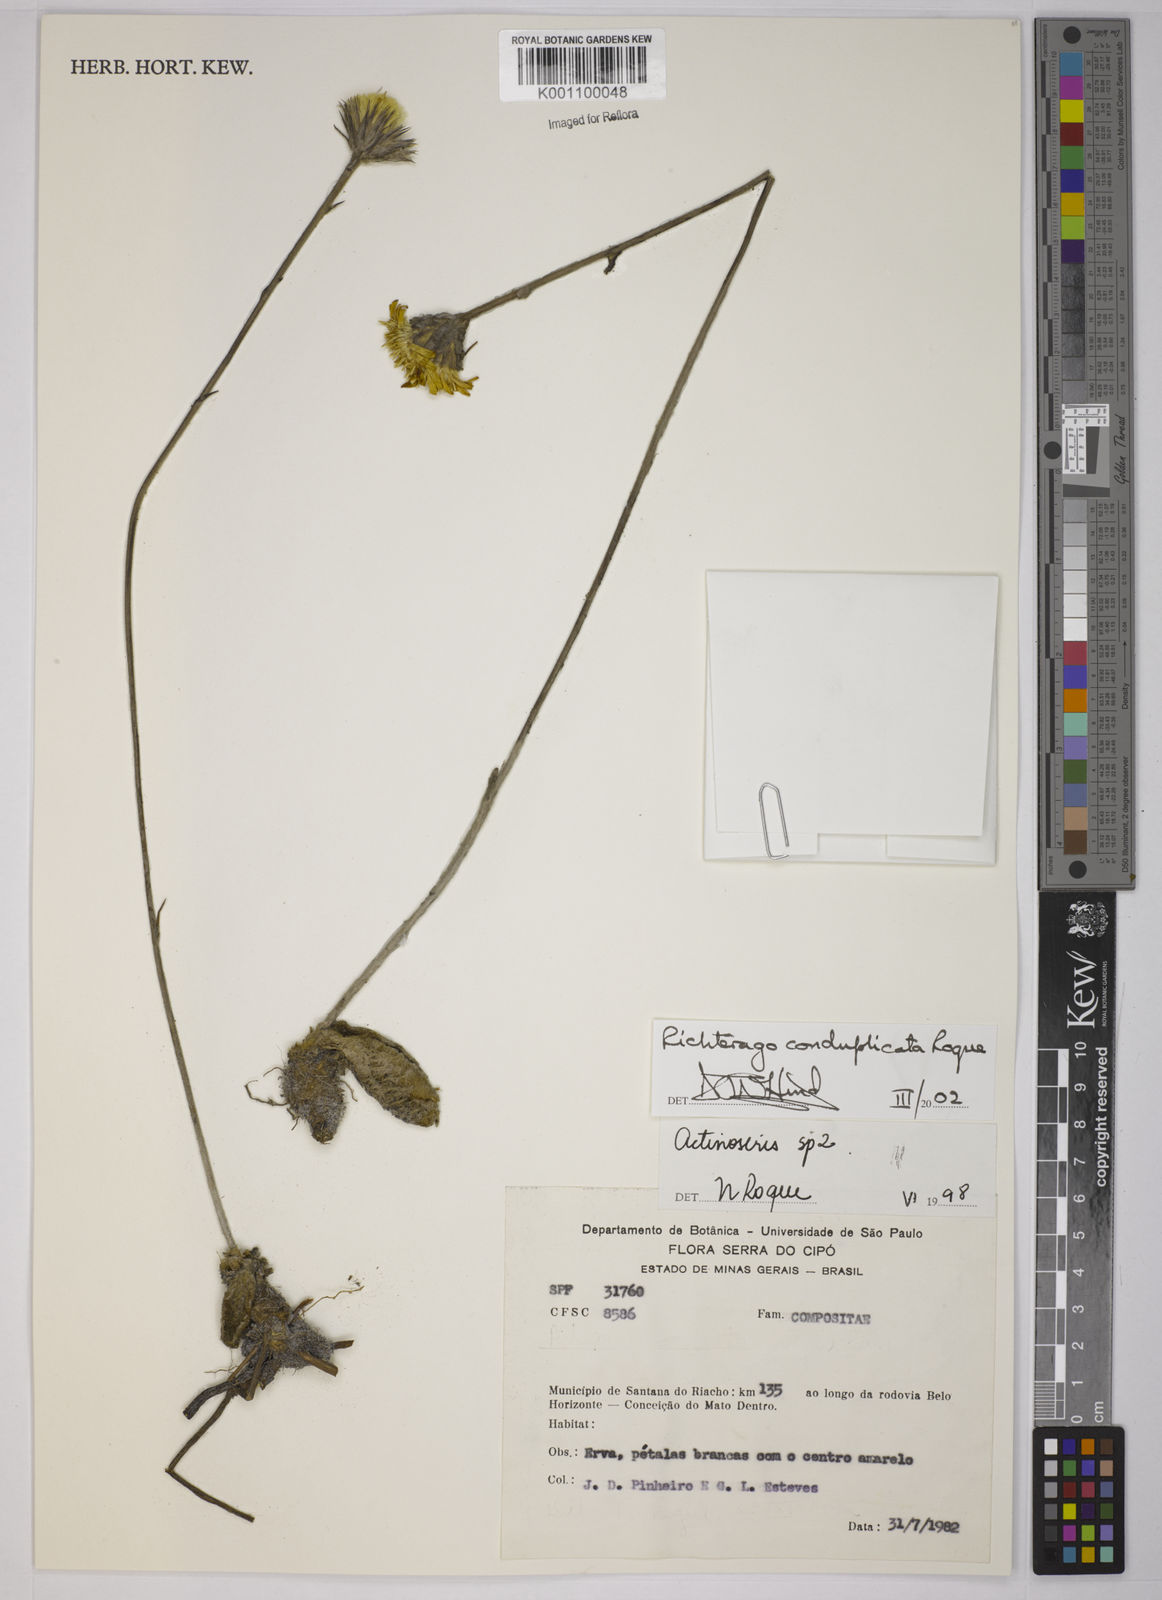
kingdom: Plantae
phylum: Tracheophyta
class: Magnoliopsida
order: Asterales
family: Asteraceae
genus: Richterago
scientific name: Richterago conduplicata
